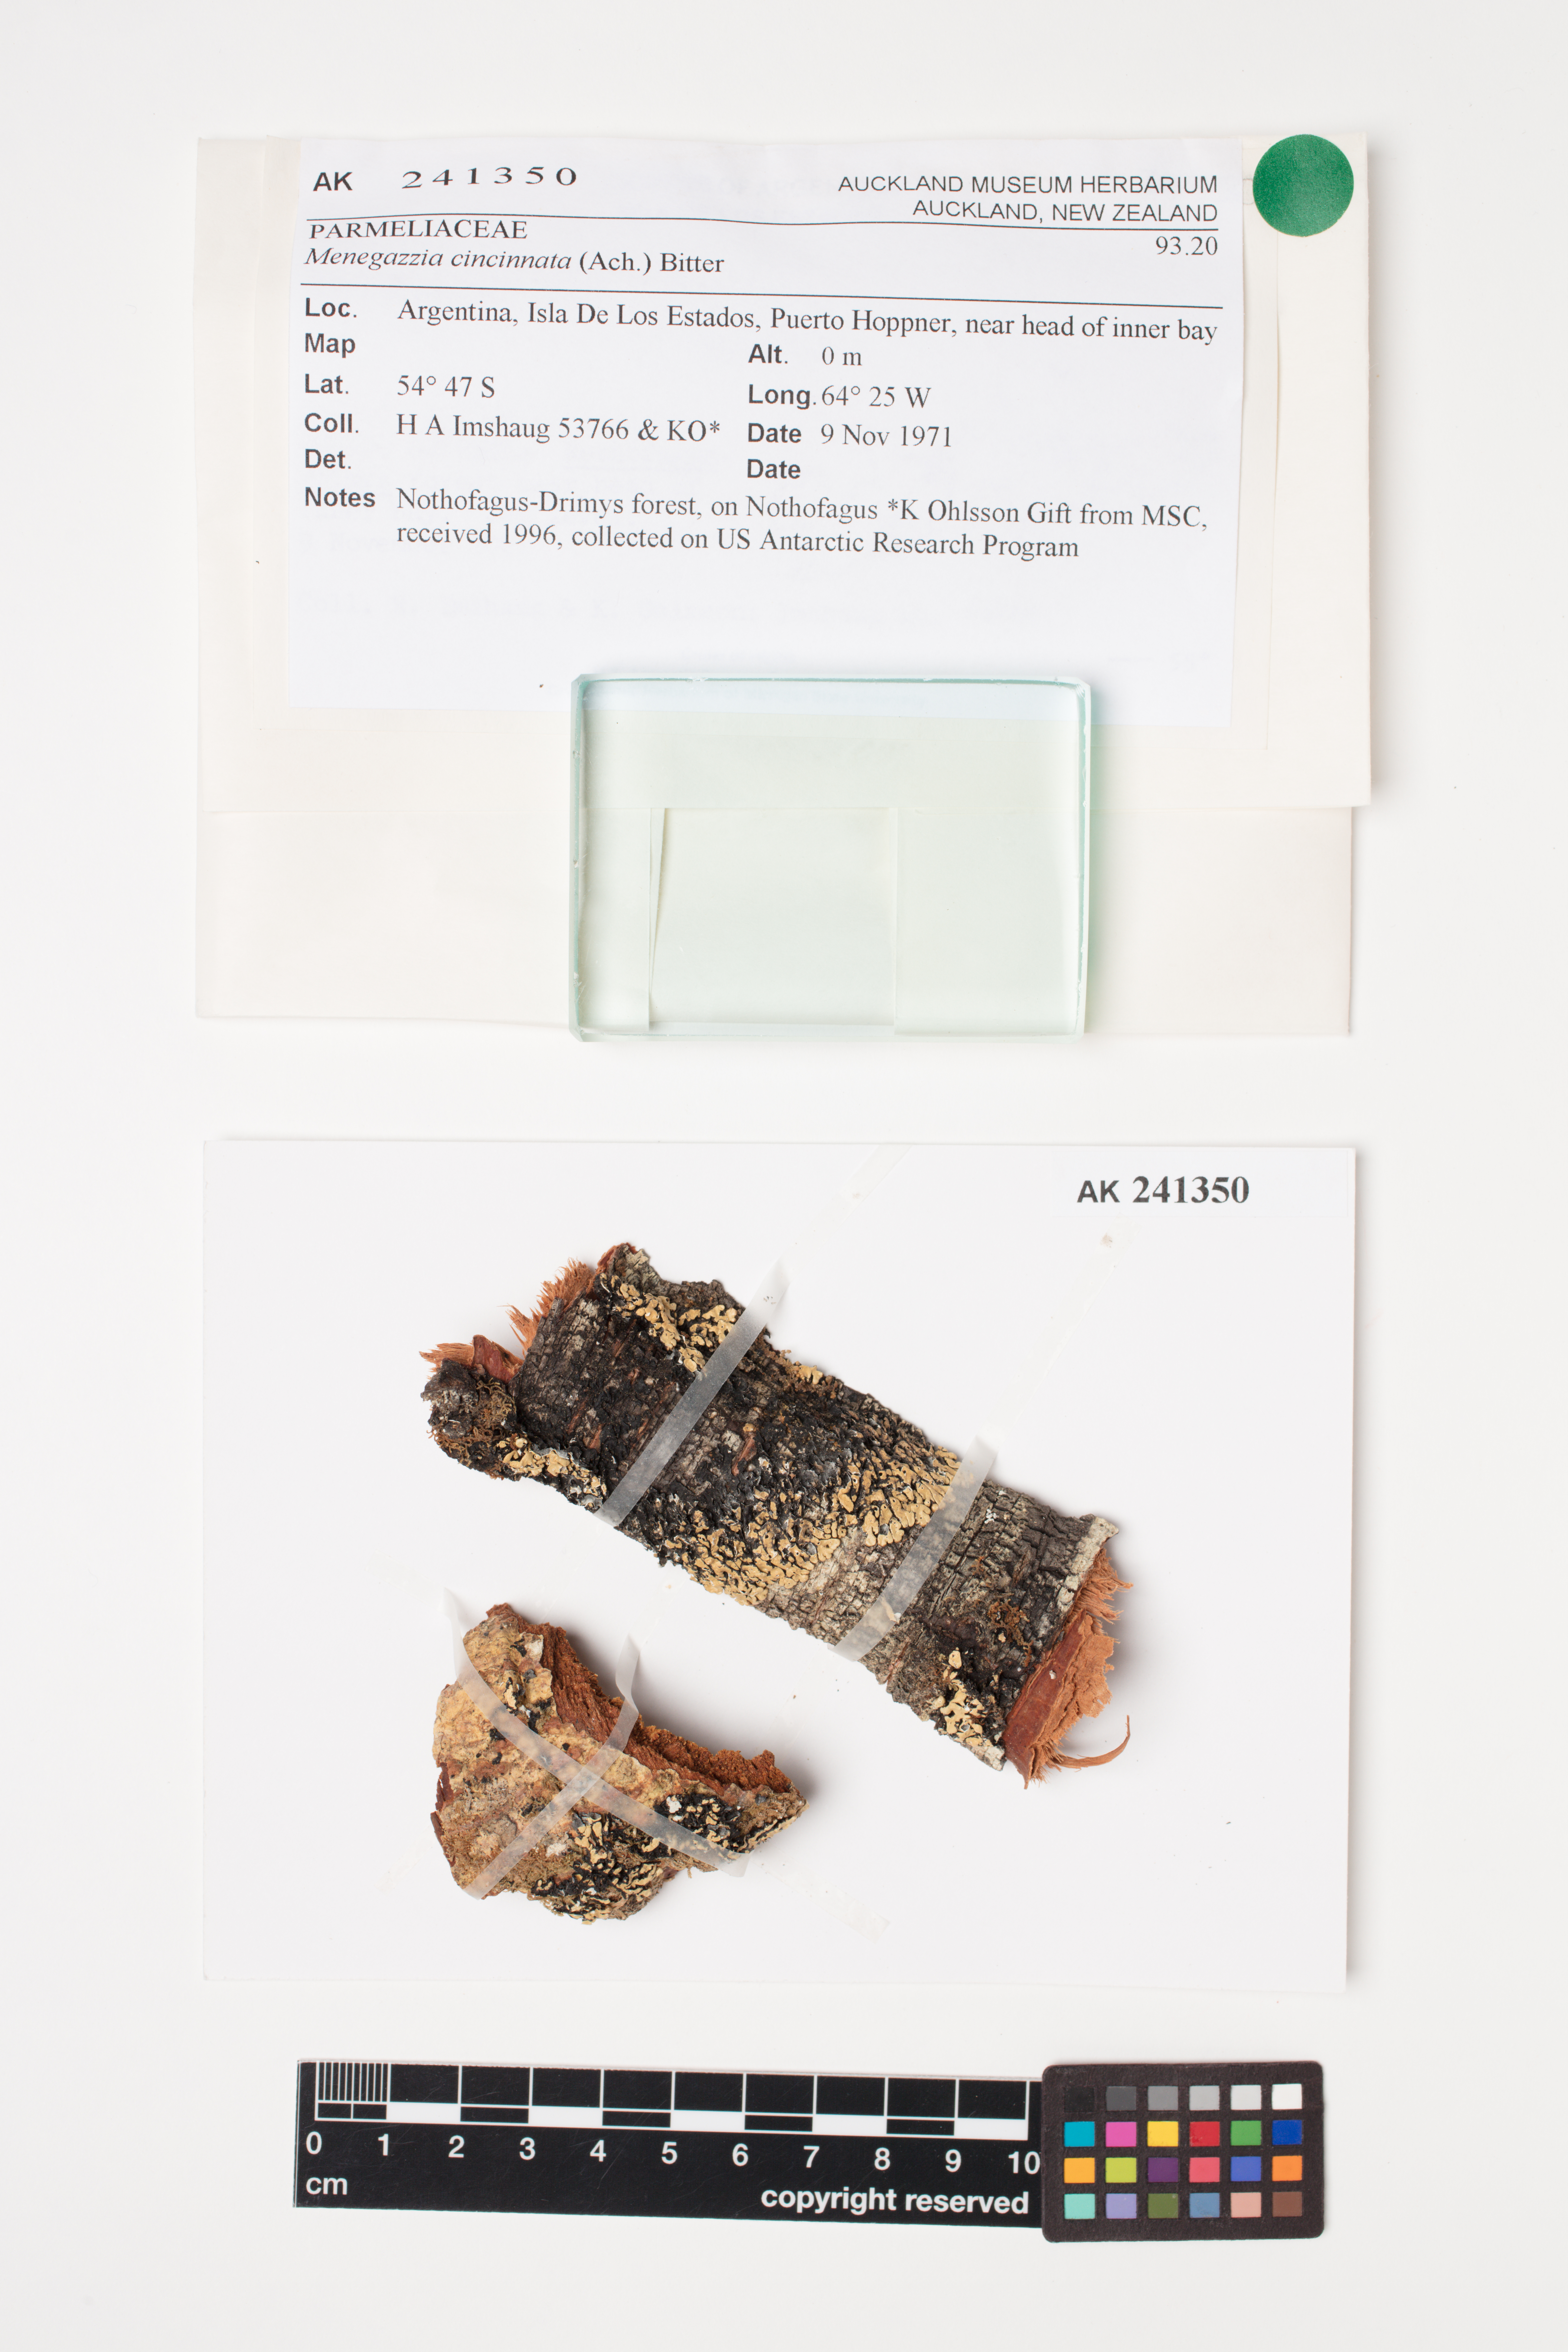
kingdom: Fungi
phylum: Ascomycota
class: Lecanoromycetes
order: Lecanorales
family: Parmeliaceae
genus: Menegazzia
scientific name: Menegazzia cincinnata
